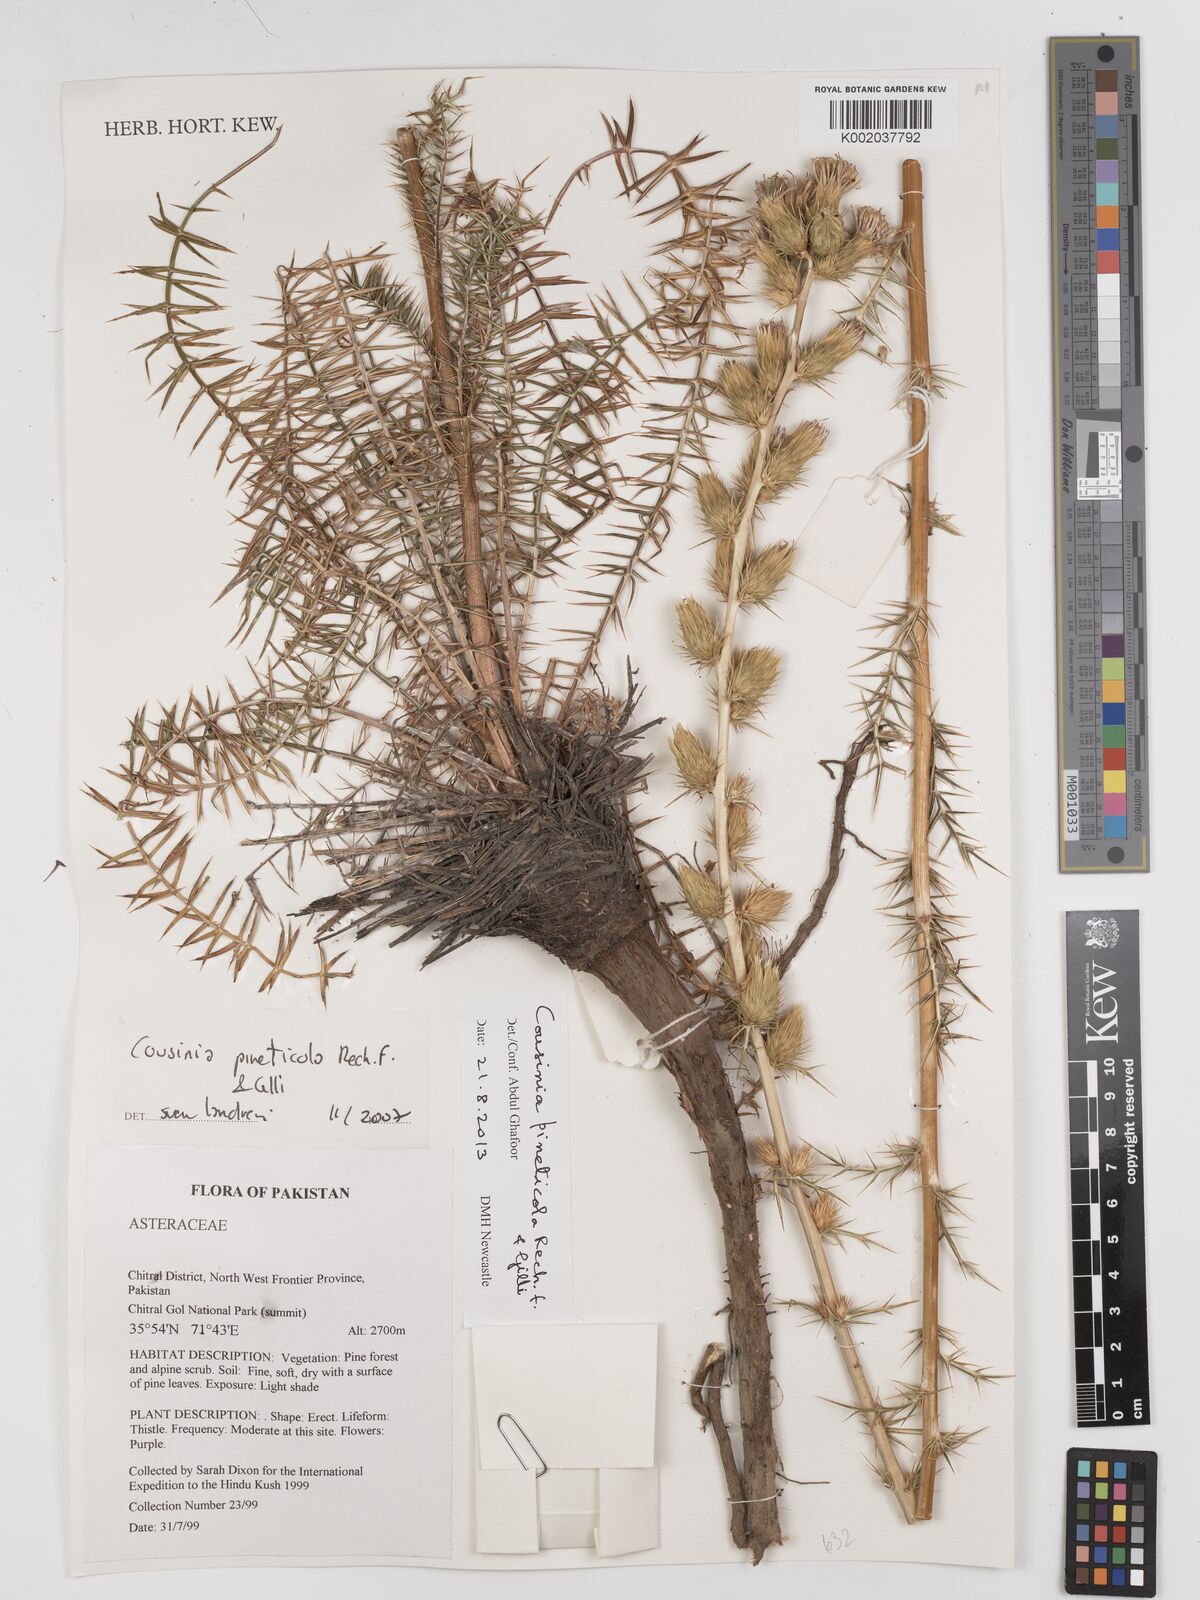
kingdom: Plantae
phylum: Tracheophyta
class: Magnoliopsida
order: Asterales
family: Asteraceae
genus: Cousinia
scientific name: Cousinia pineticola
